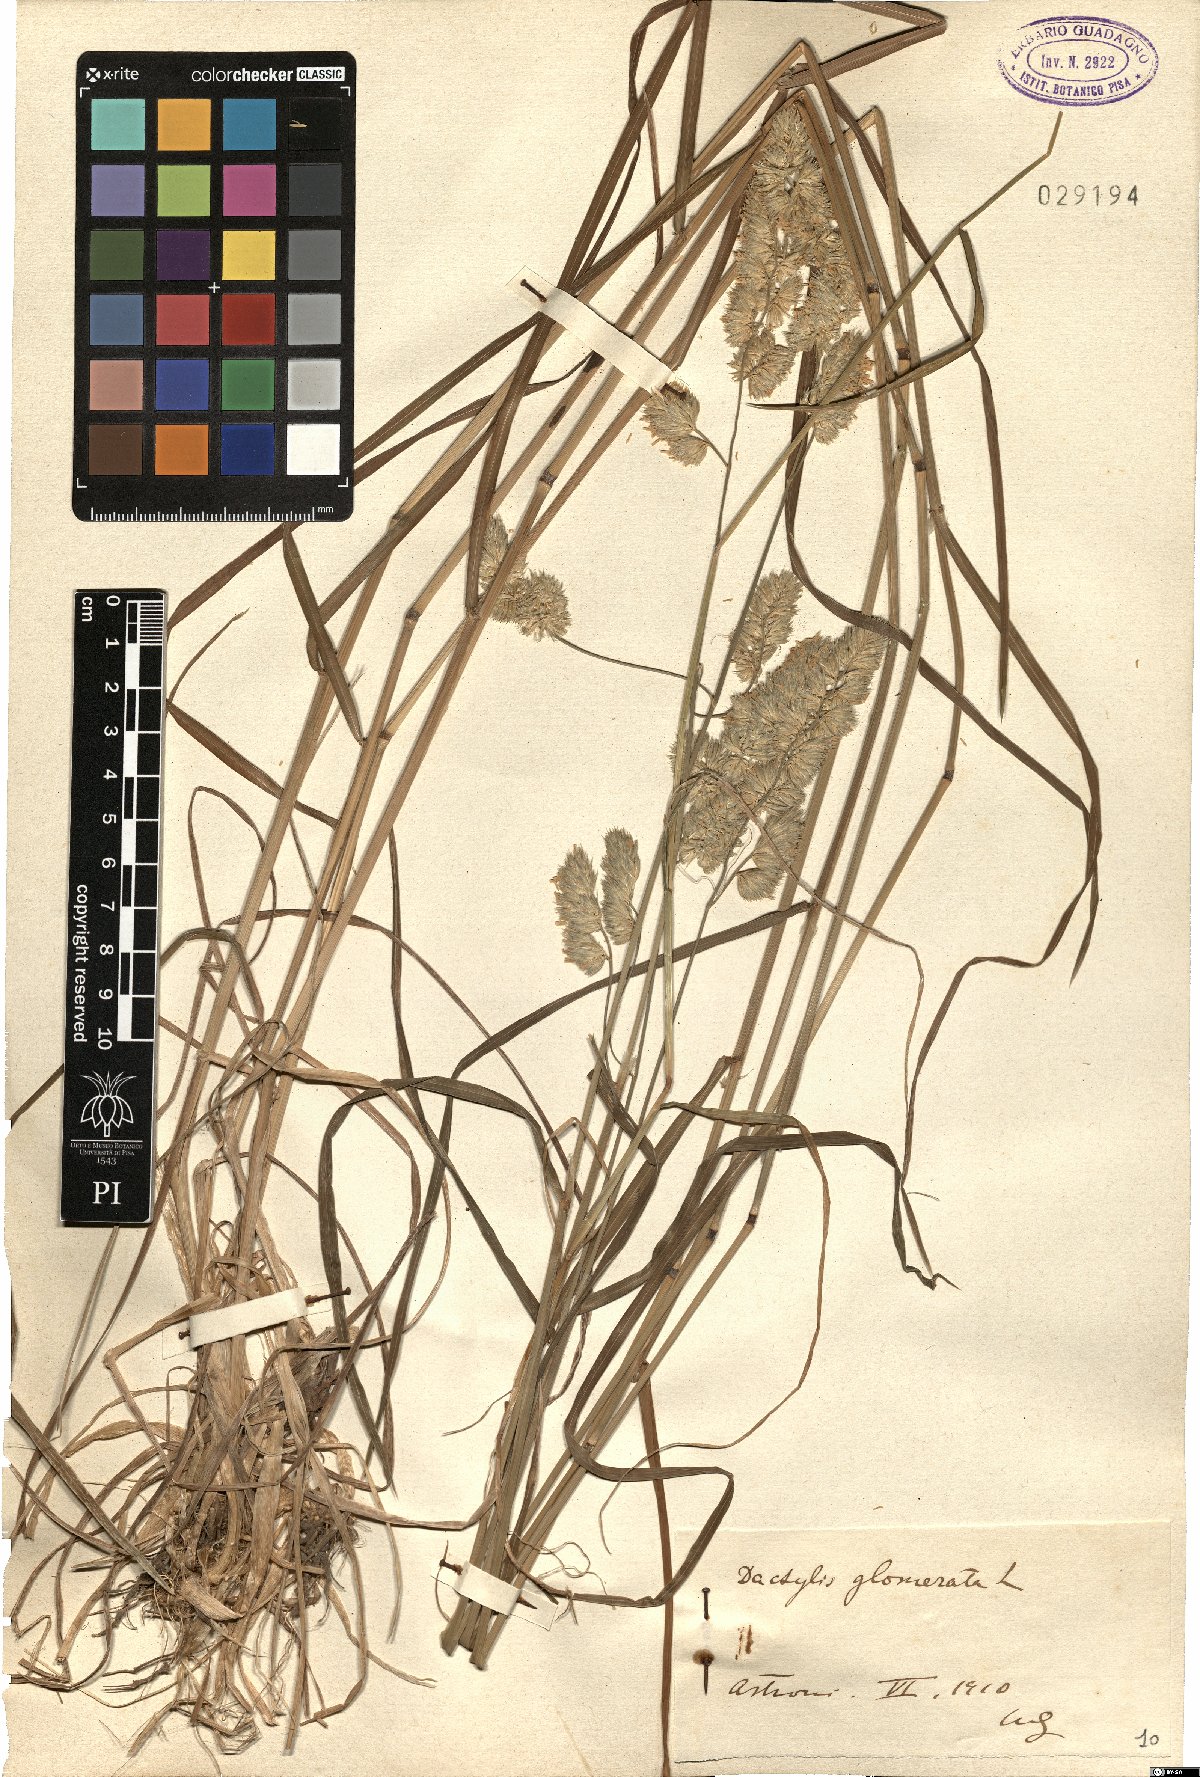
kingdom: Plantae
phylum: Tracheophyta
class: Liliopsida
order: Poales
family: Poaceae
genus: Dactylis
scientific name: Dactylis glomerata
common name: Orchardgrass
